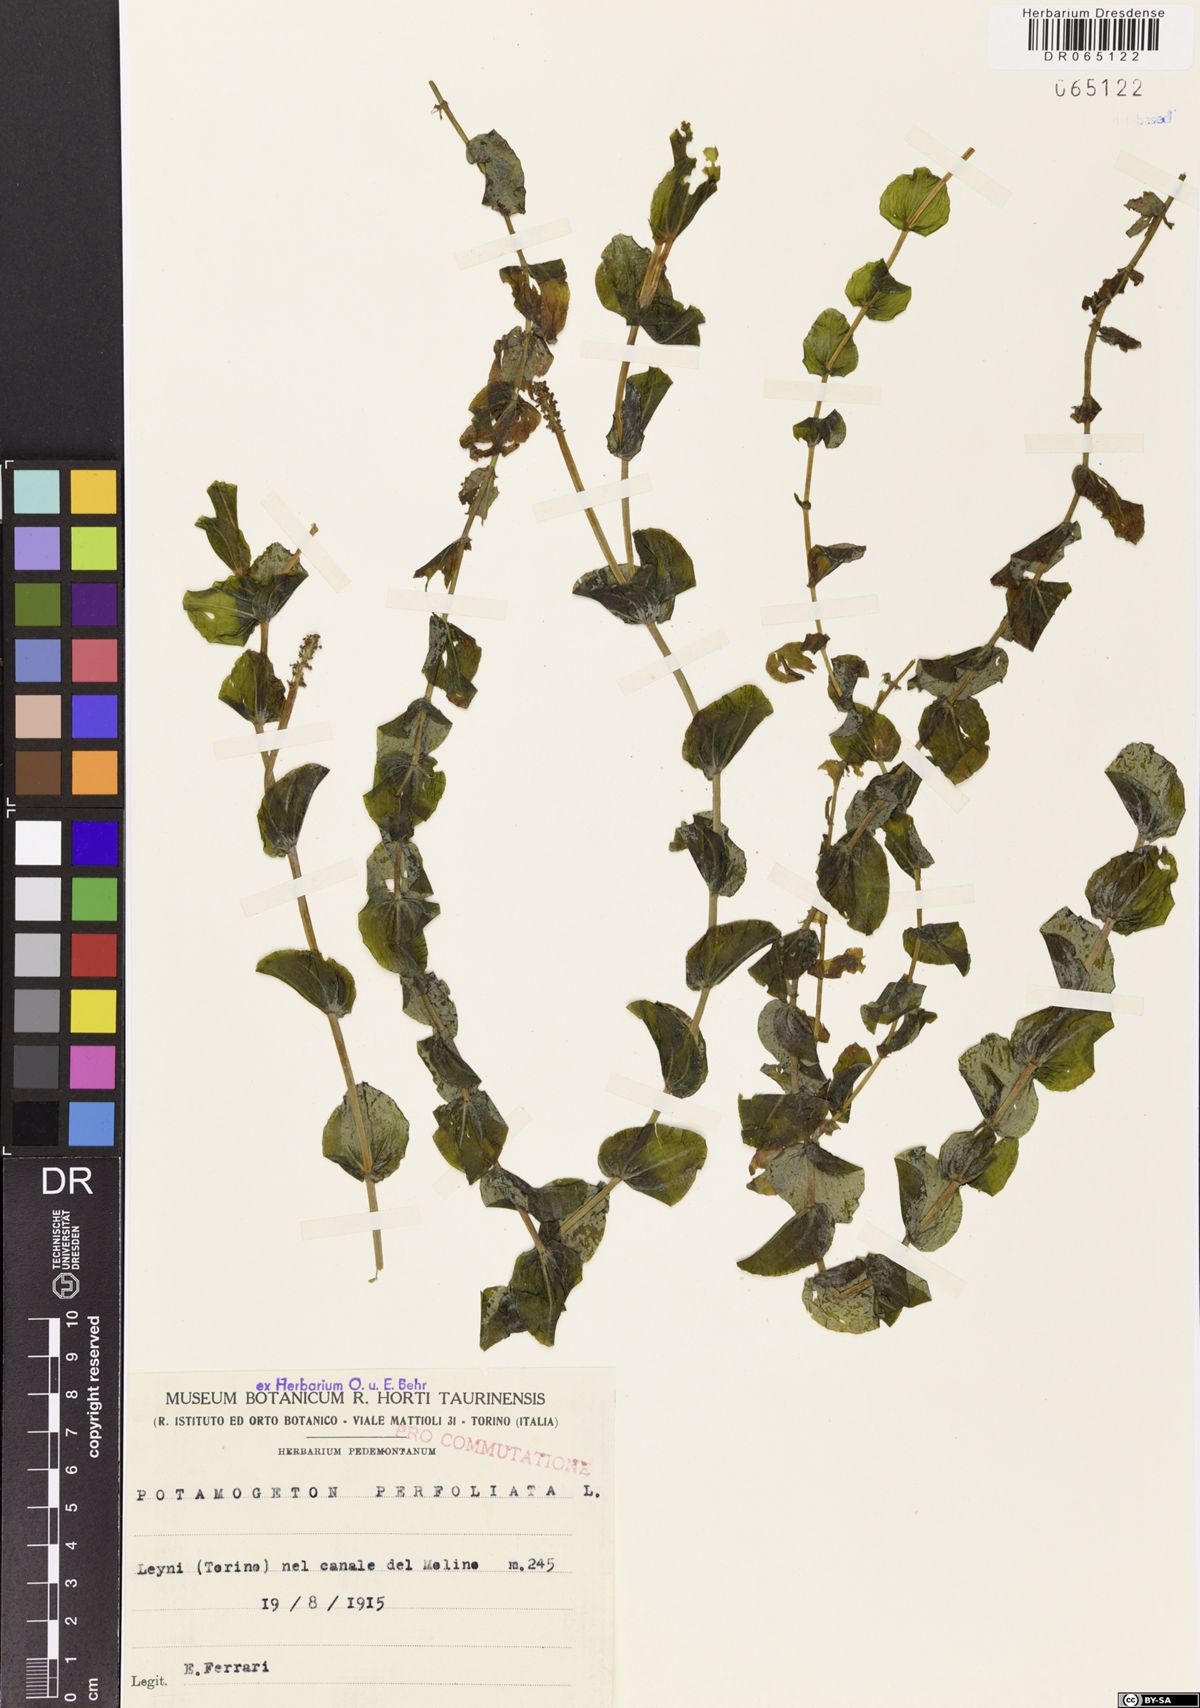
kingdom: Plantae
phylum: Tracheophyta
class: Liliopsida
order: Alismatales
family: Potamogetonaceae
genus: Potamogeton
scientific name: Potamogeton perfoliatus
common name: Perfoliate pondweed
